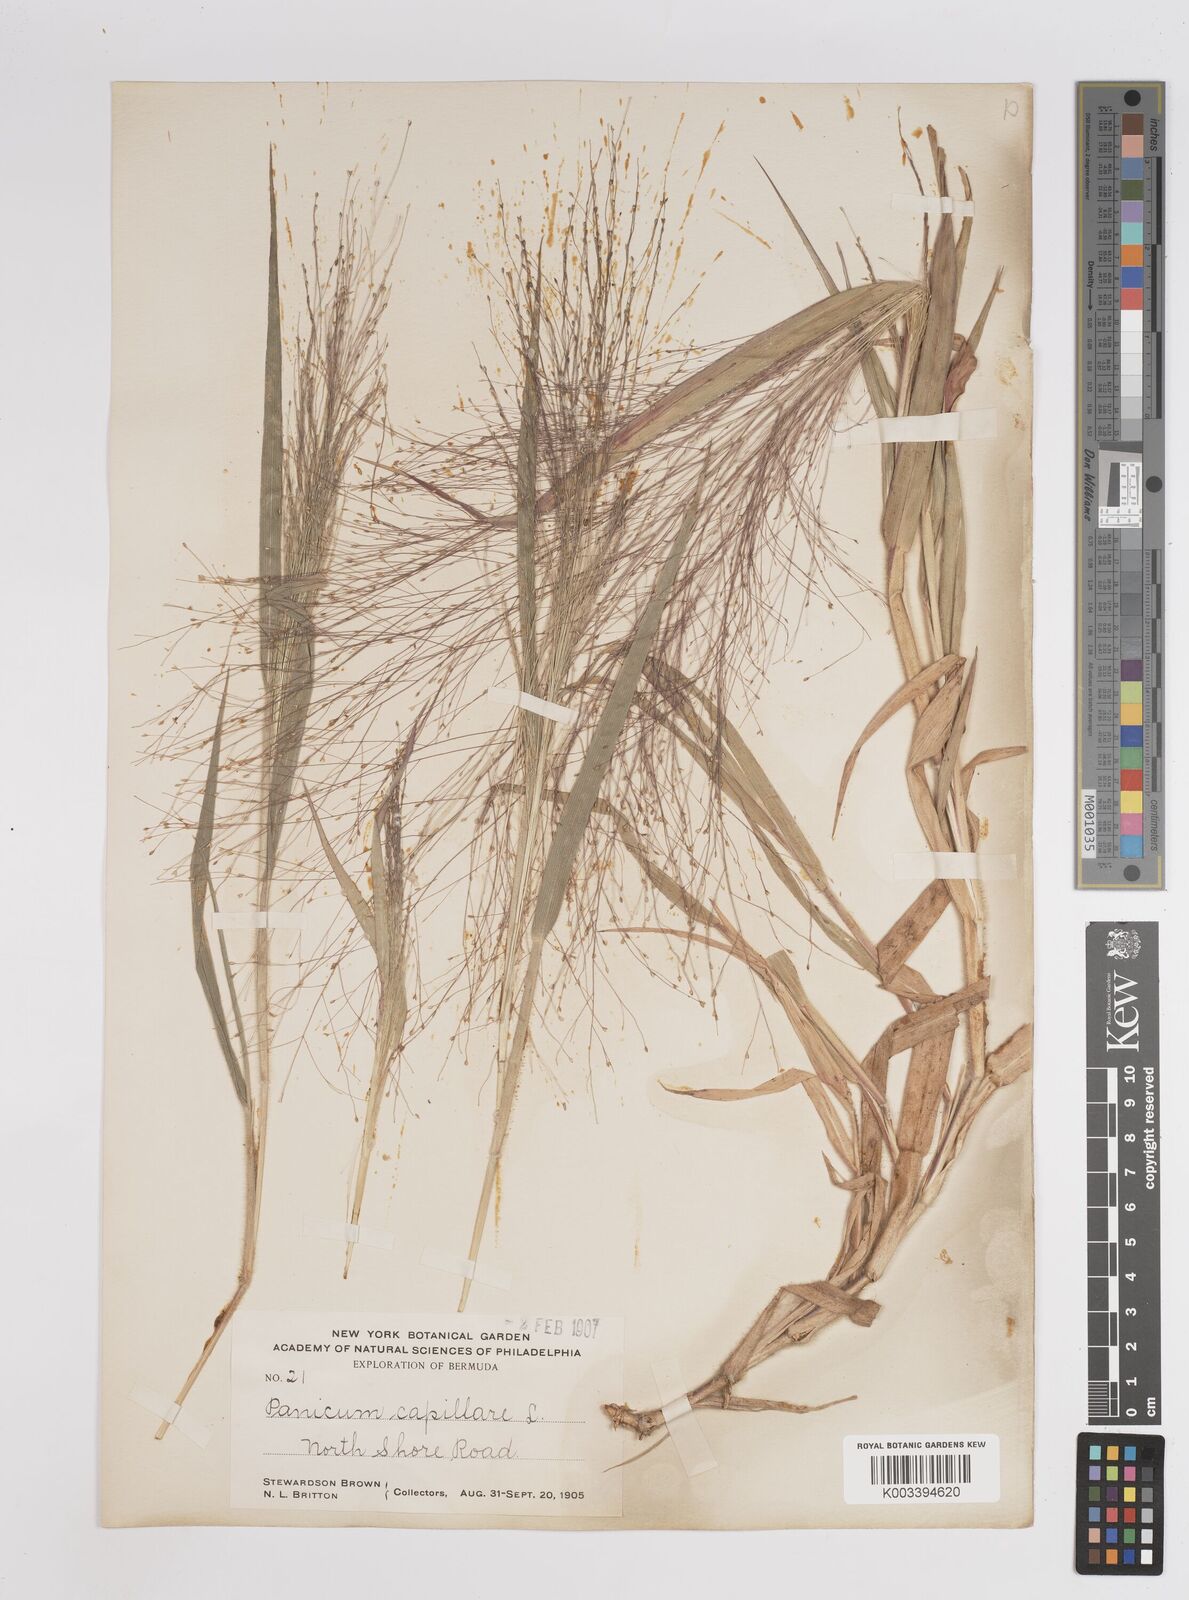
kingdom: Plantae
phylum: Tracheophyta
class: Liliopsida
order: Poales
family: Poaceae
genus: Panicum
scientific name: Panicum capillare
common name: Witch-grass
